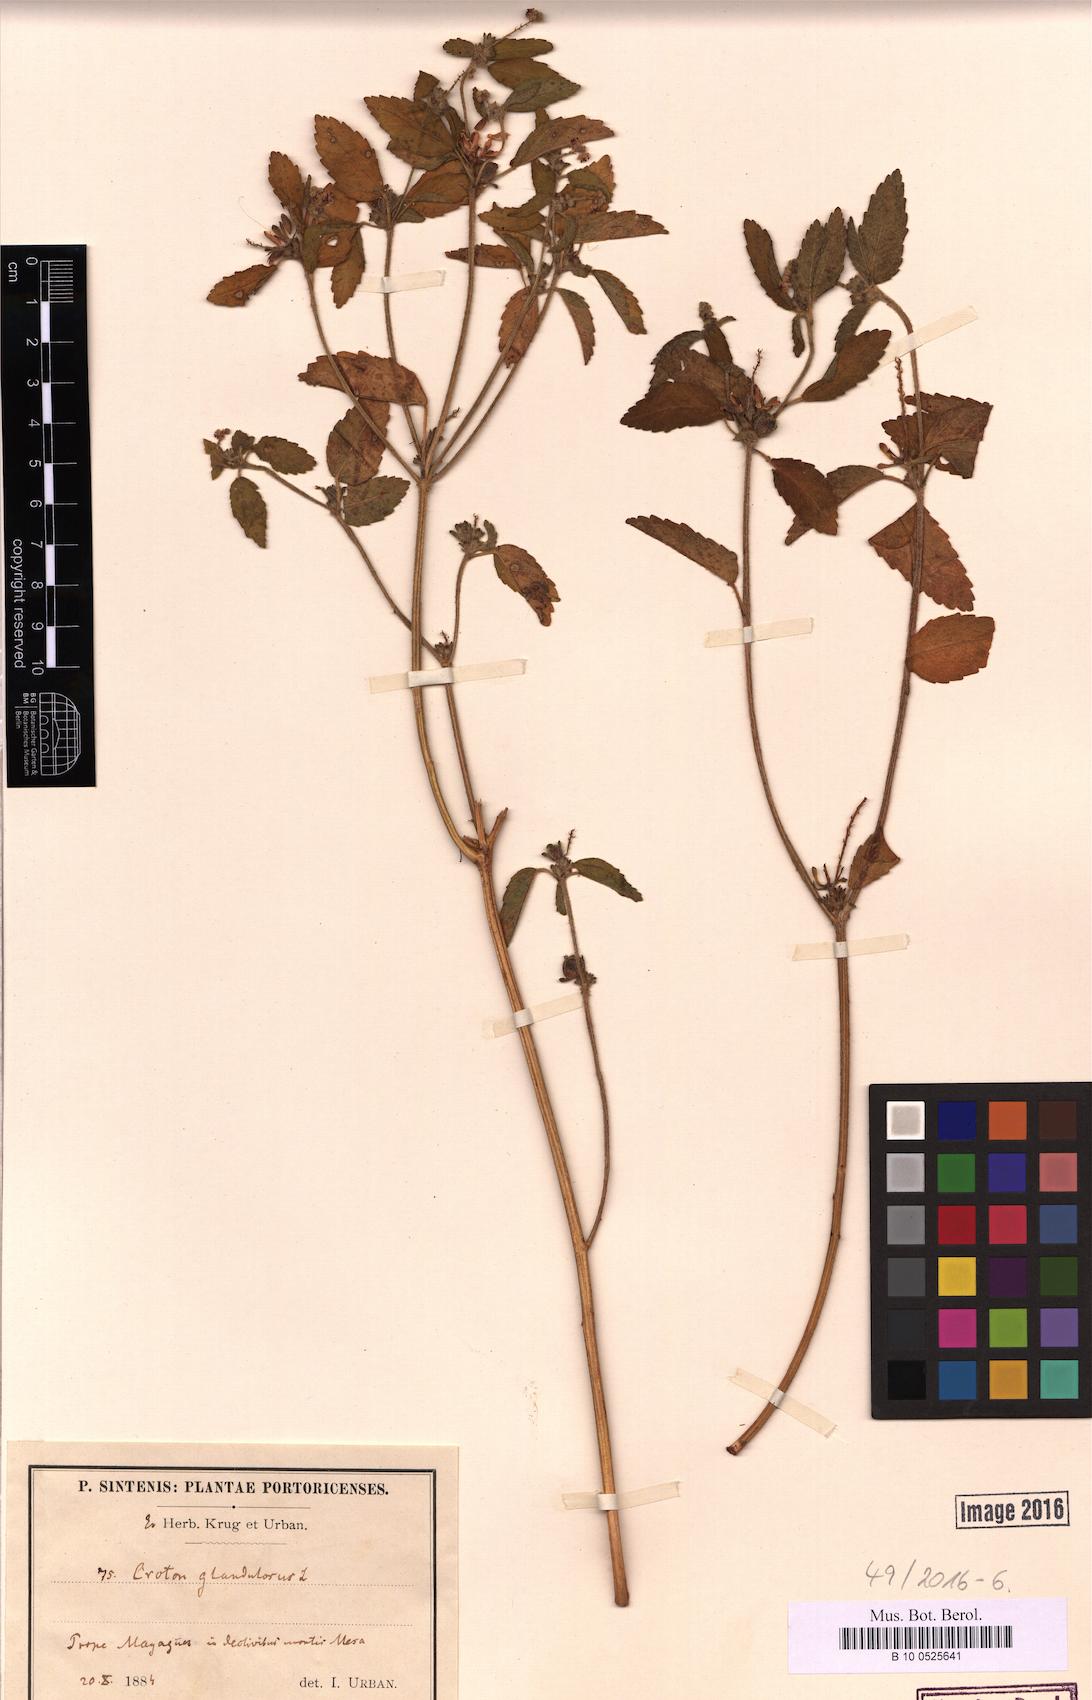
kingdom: Plantae
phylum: Tracheophyta
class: Magnoliopsida
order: Malpighiales
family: Euphorbiaceae
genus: Croton
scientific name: Croton glandulosus
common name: Tropic croton
